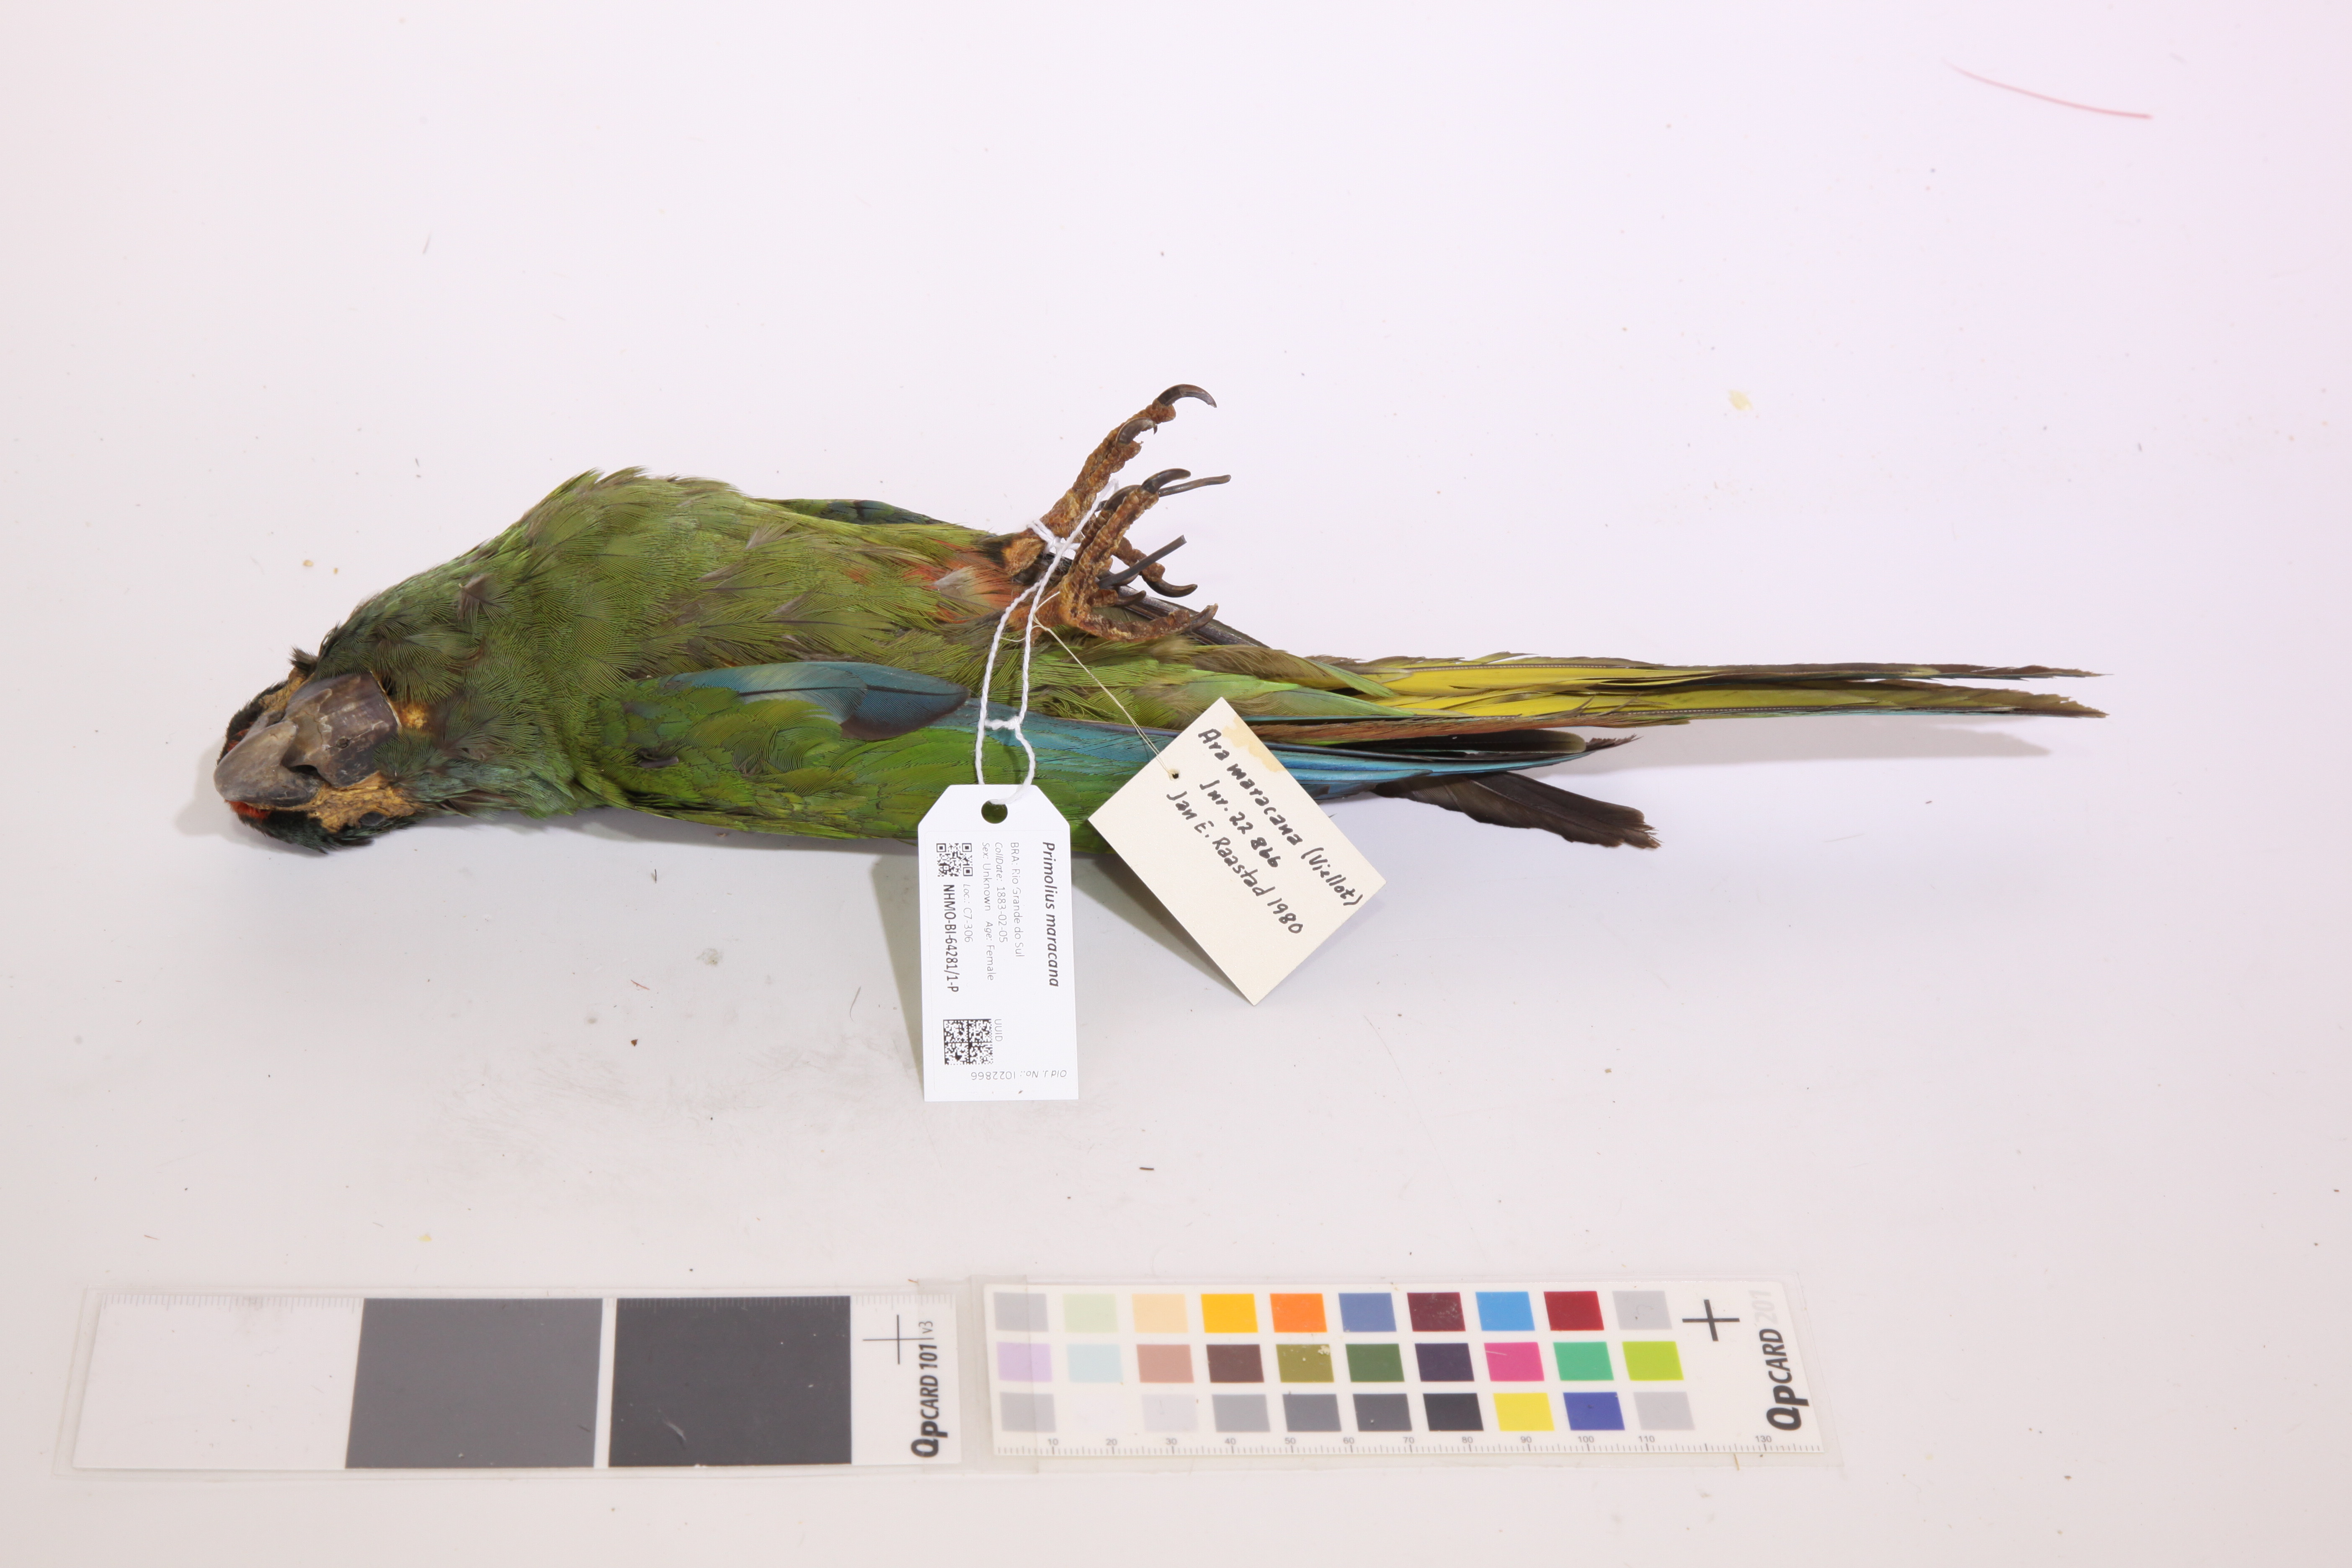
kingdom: Animalia
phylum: Chordata
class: Aves
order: Psittaciformes
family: Psittacidae
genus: Primolius
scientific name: Primolius maracana
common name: Blue-winged macaw
